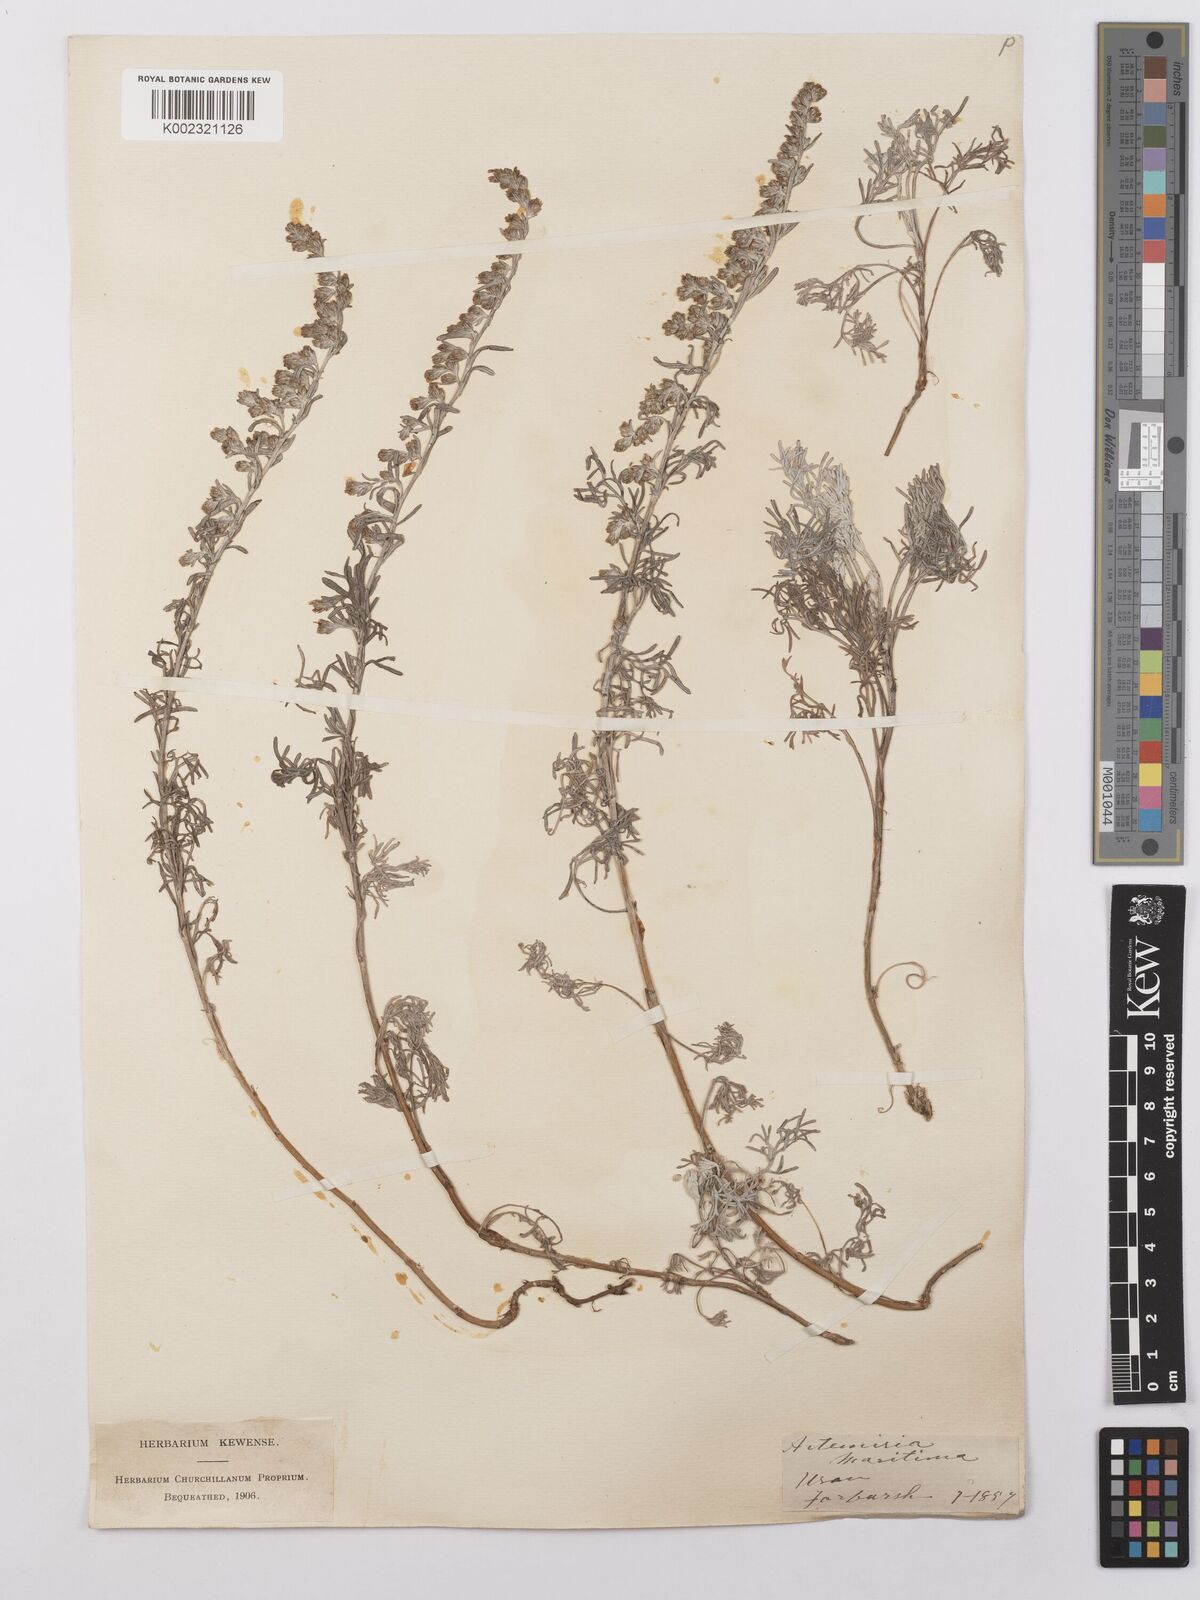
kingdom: Plantae
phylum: Tracheophyta
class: Magnoliopsida
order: Asterales
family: Asteraceae
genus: Artemisia
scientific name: Artemisia maritima
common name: Wormseed
